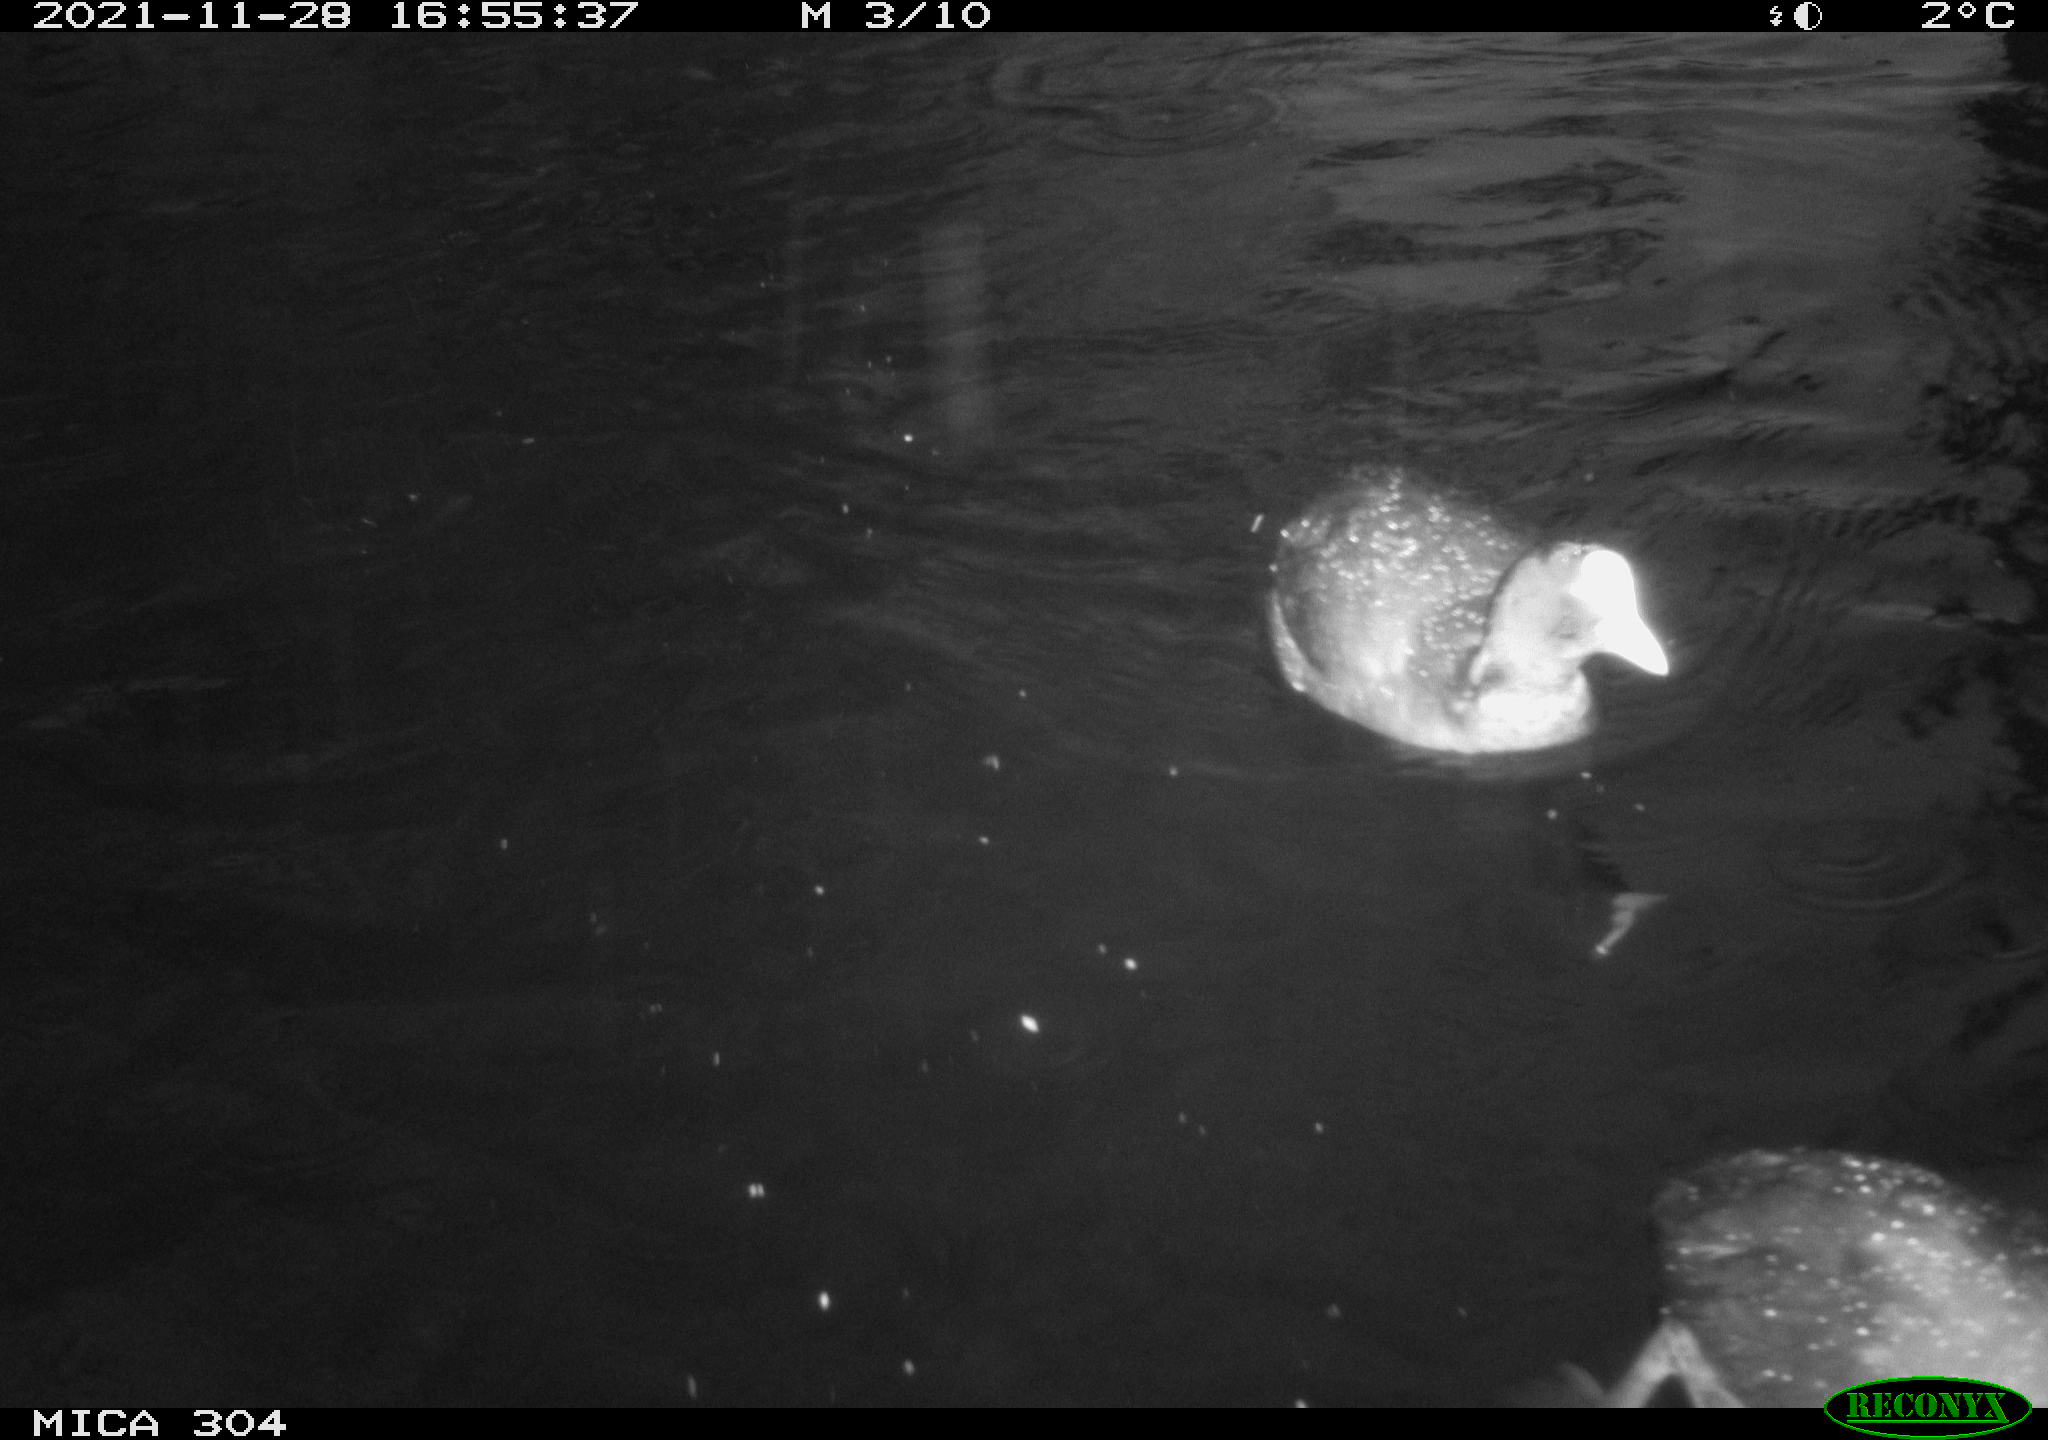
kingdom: Animalia
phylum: Chordata
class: Aves
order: Gruiformes
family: Rallidae
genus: Fulica
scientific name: Fulica atra
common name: Eurasian coot
